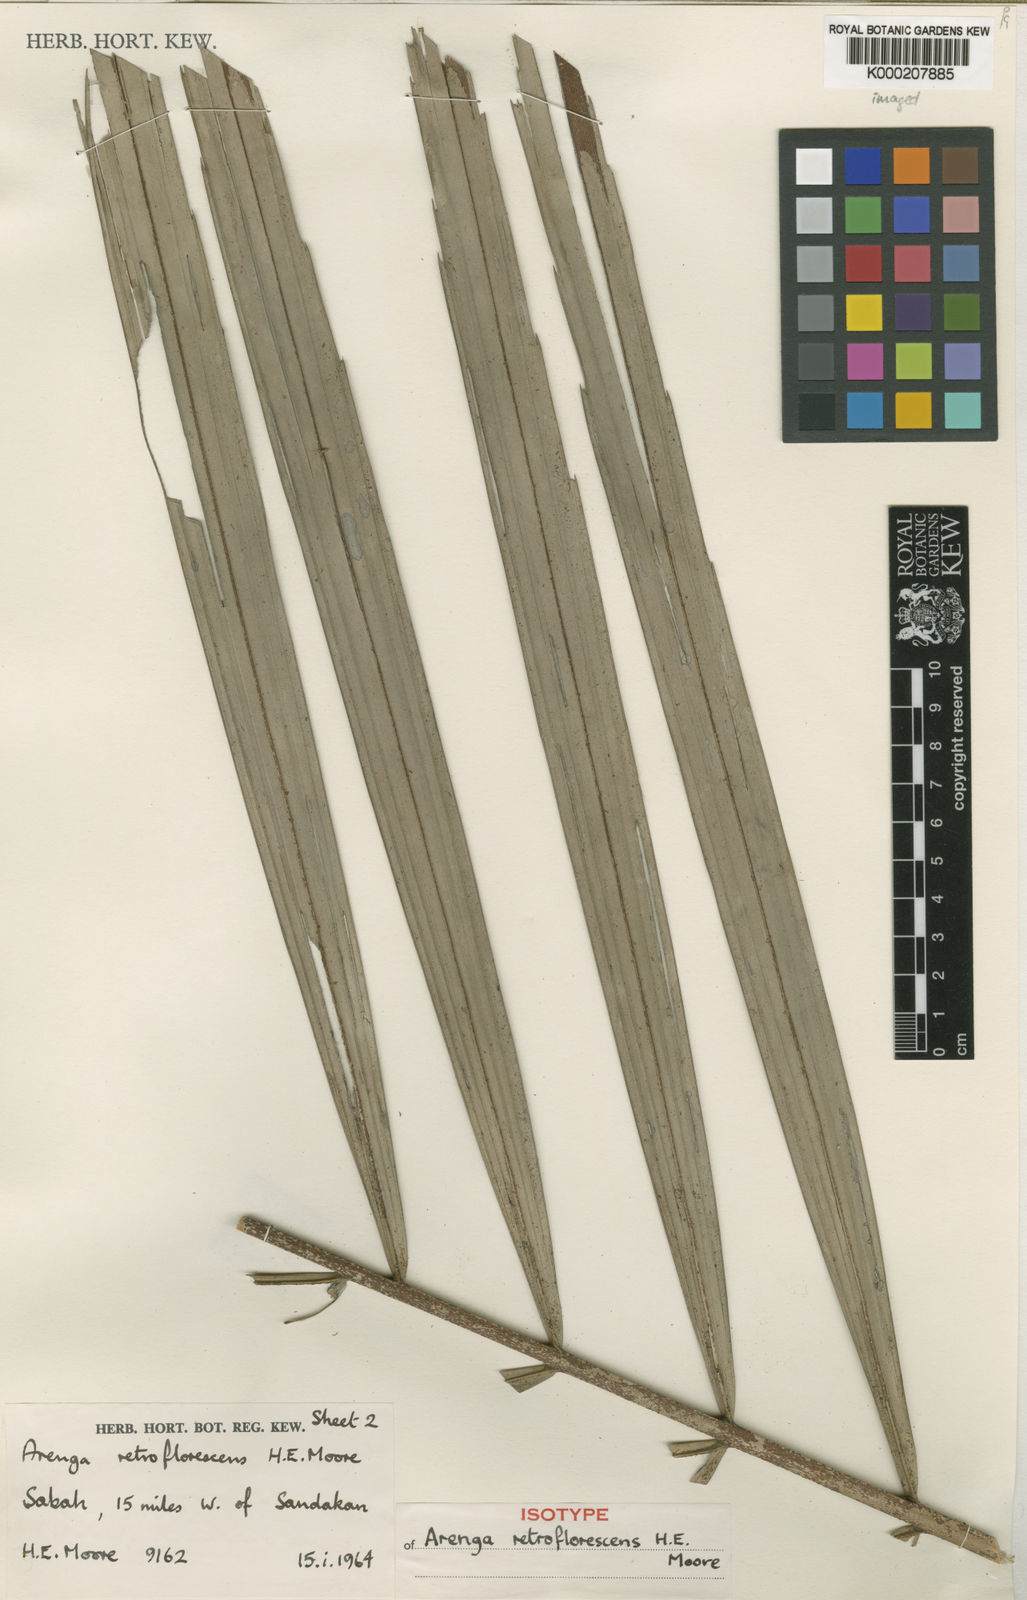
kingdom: Plantae
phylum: Tracheophyta
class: Liliopsida
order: Arecales
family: Arecaceae
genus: Arenga
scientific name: Arenga retroflorescens
